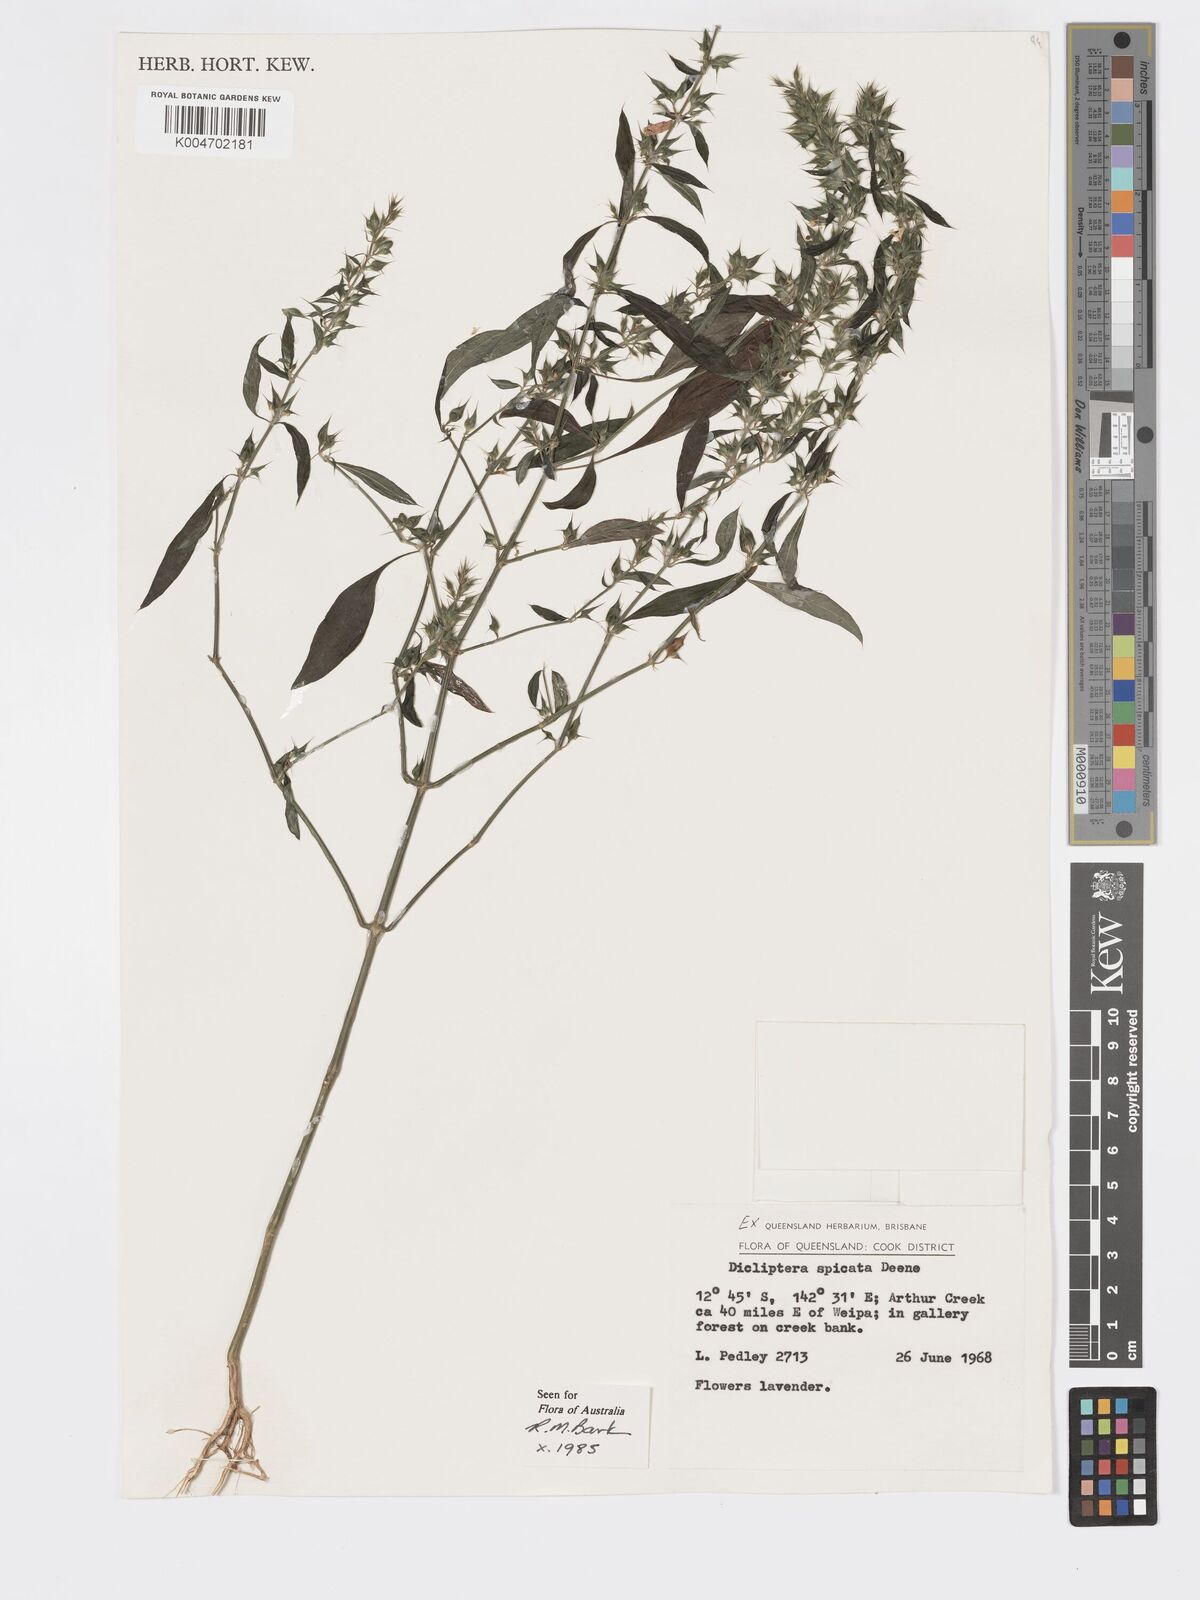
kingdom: Plantae
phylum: Tracheophyta
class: Magnoliopsida
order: Lamiales
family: Acanthaceae
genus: Dicliptera
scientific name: Dicliptera
